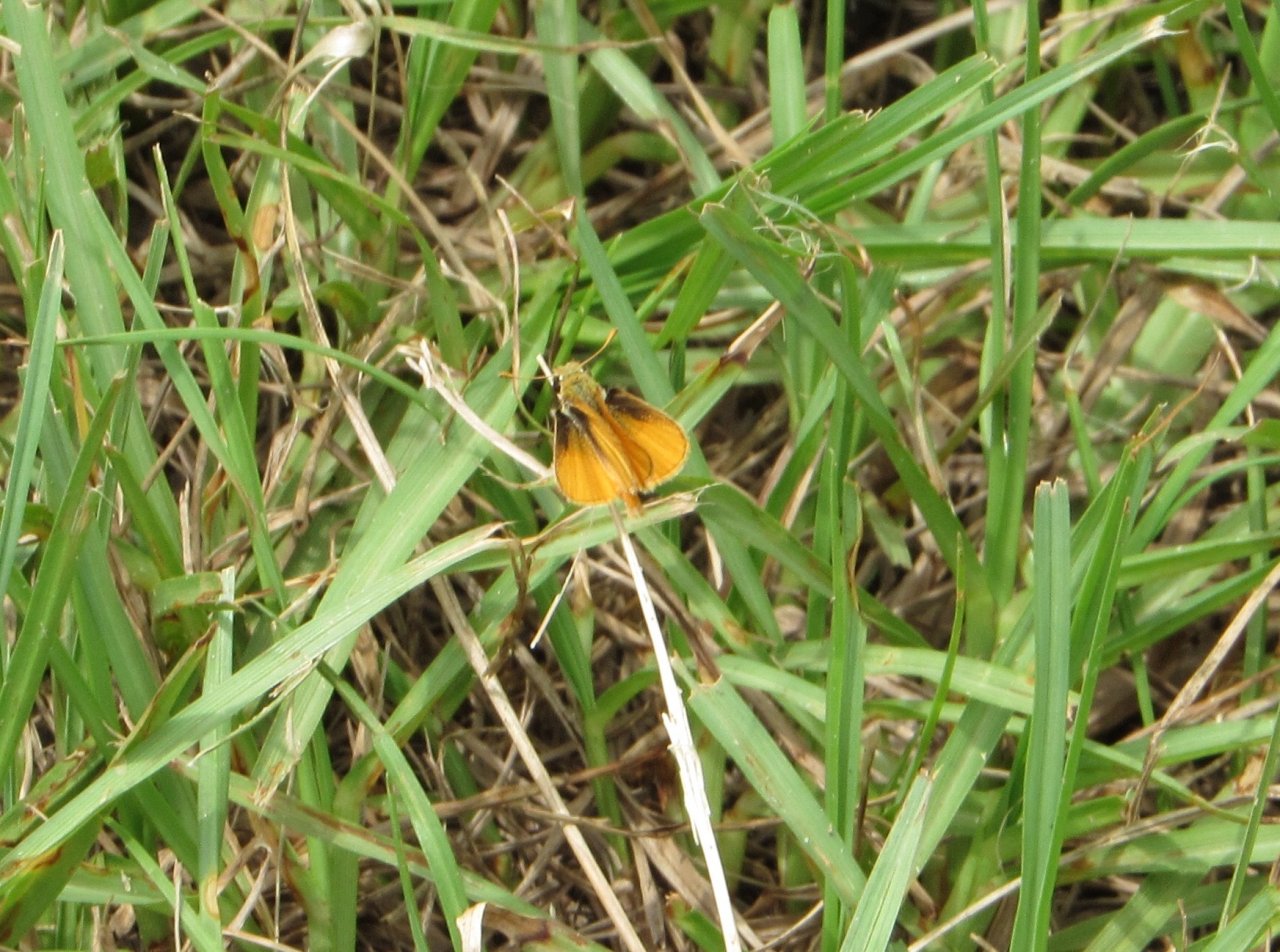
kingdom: Animalia
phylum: Arthropoda
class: Insecta
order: Lepidoptera
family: Hesperiidae
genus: Copaeodes
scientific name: Copaeodes minima
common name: Southern Skipperling
